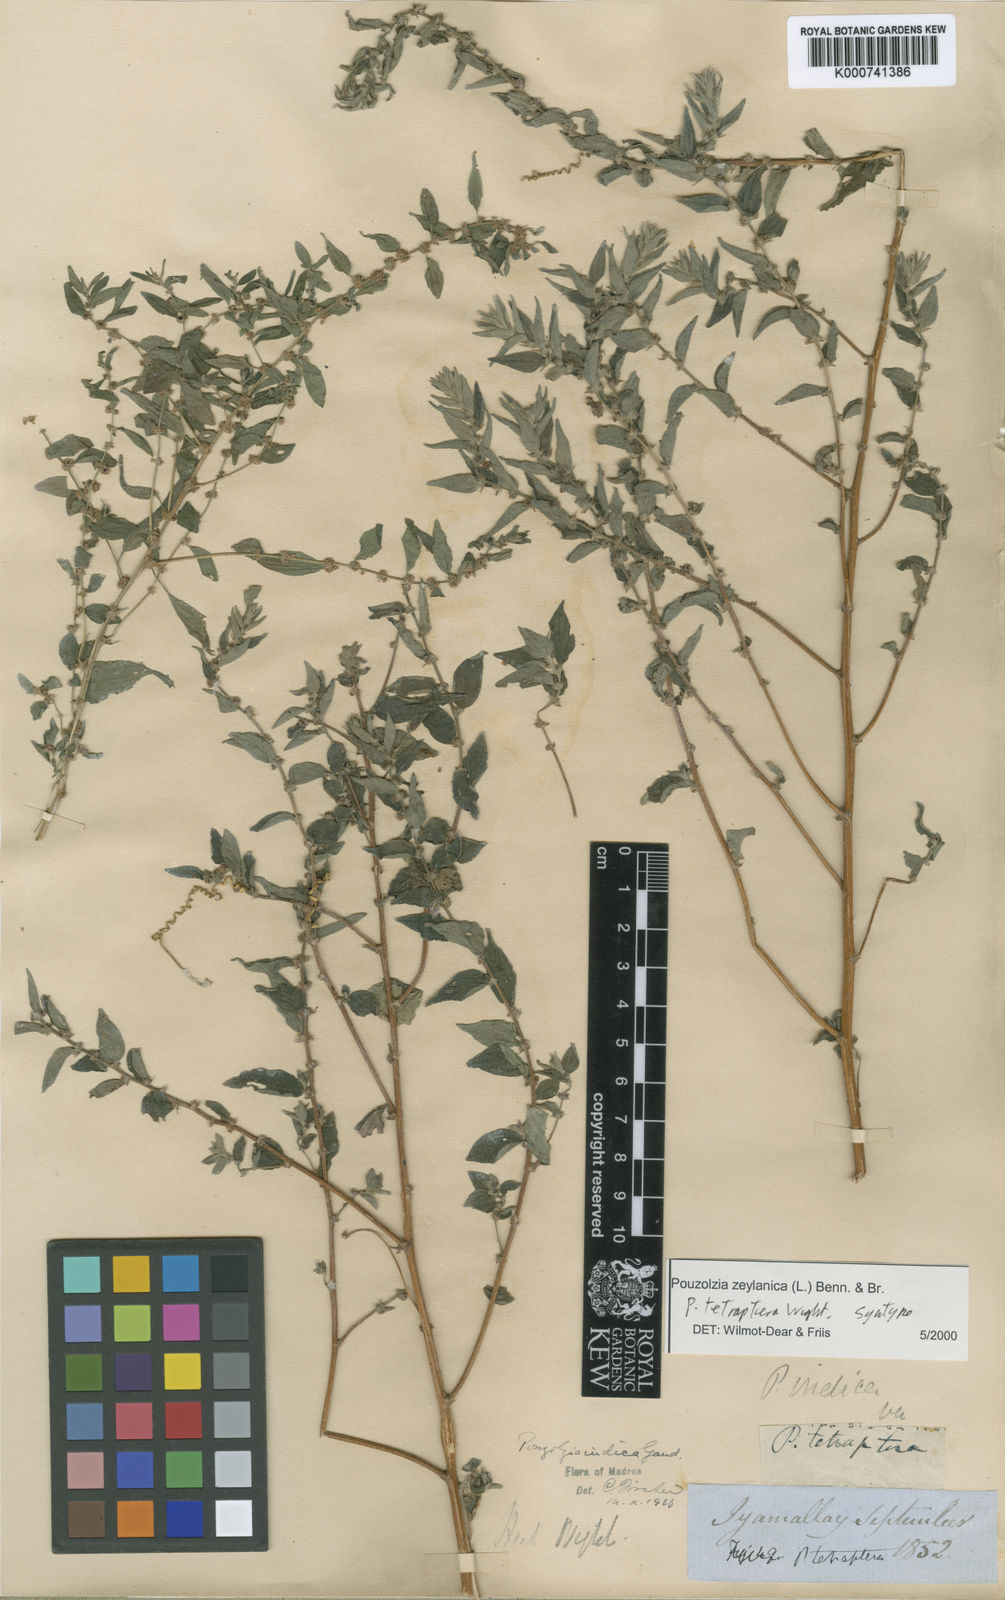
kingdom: Plantae
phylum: Tracheophyta
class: Magnoliopsida
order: Rosales
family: Urticaceae
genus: Pouzolzia
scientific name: Pouzolzia zeylanica
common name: Graceful pouzolzsbush
